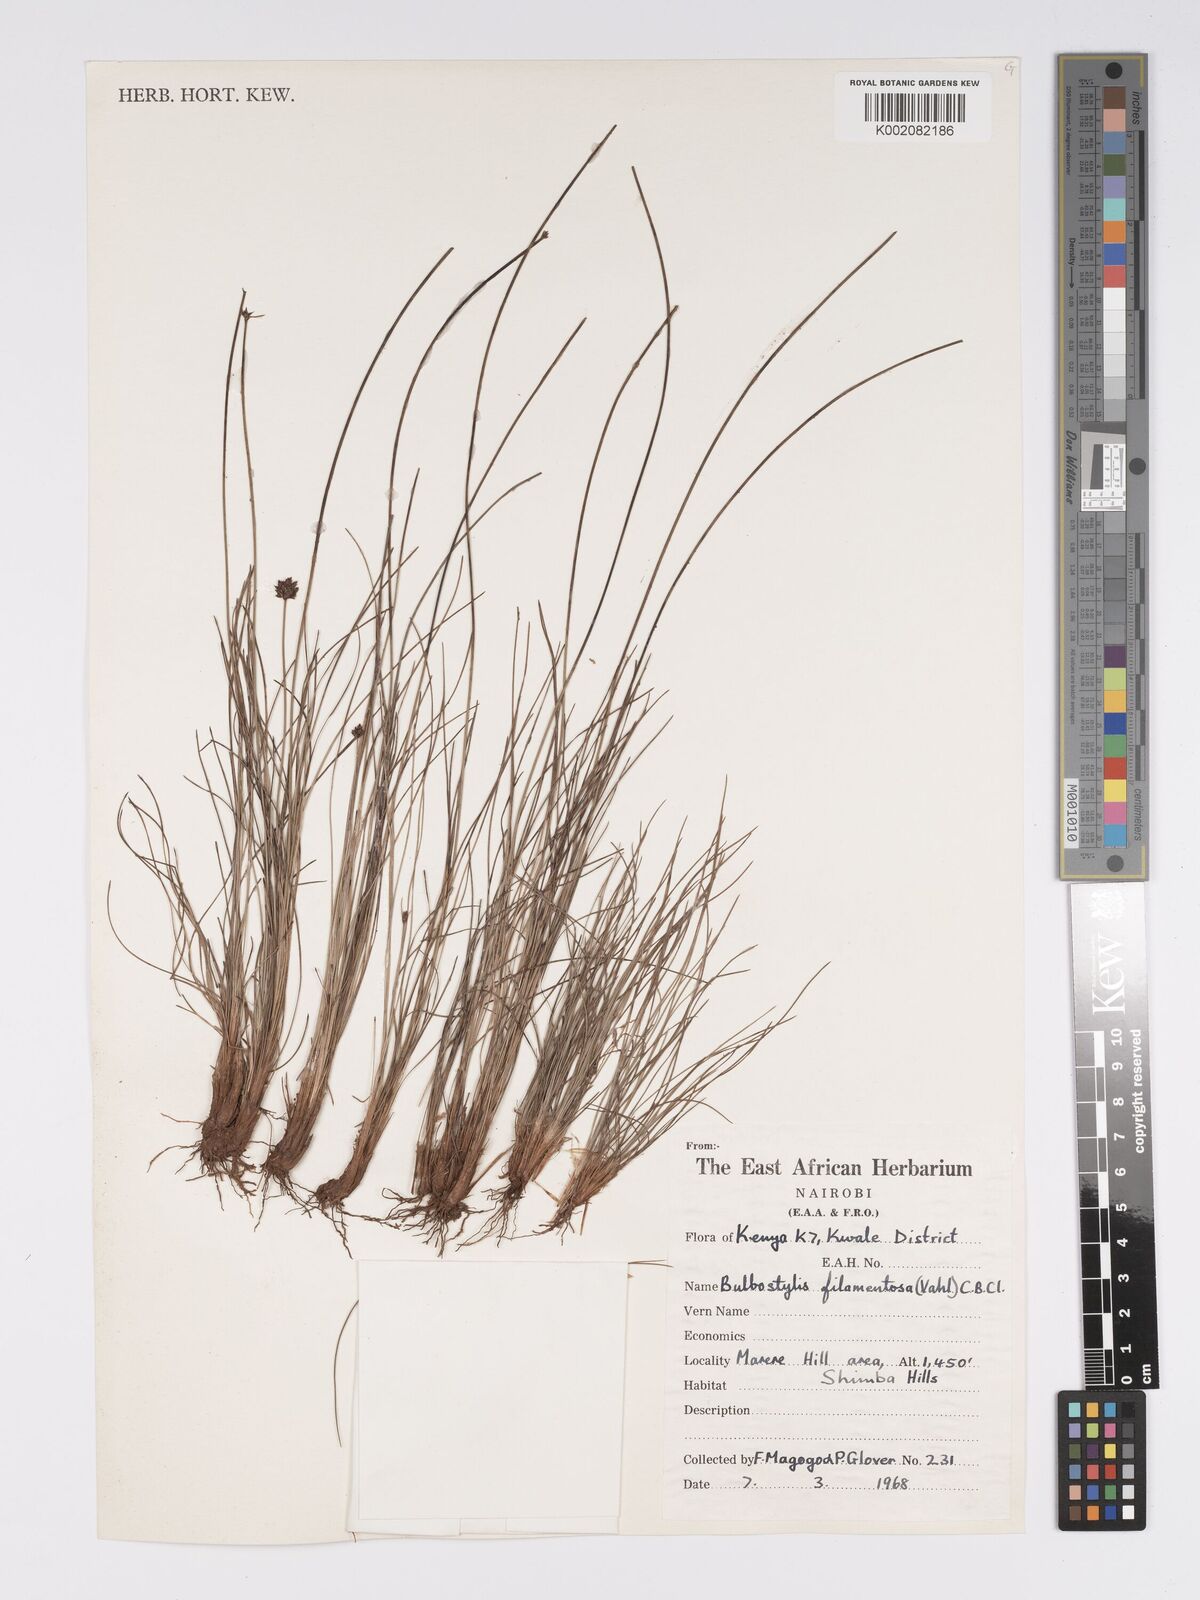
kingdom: Plantae
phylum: Tracheophyta
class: Liliopsida
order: Poales
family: Cyperaceae
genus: Bulbostylis
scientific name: Bulbostylis filamentosa
